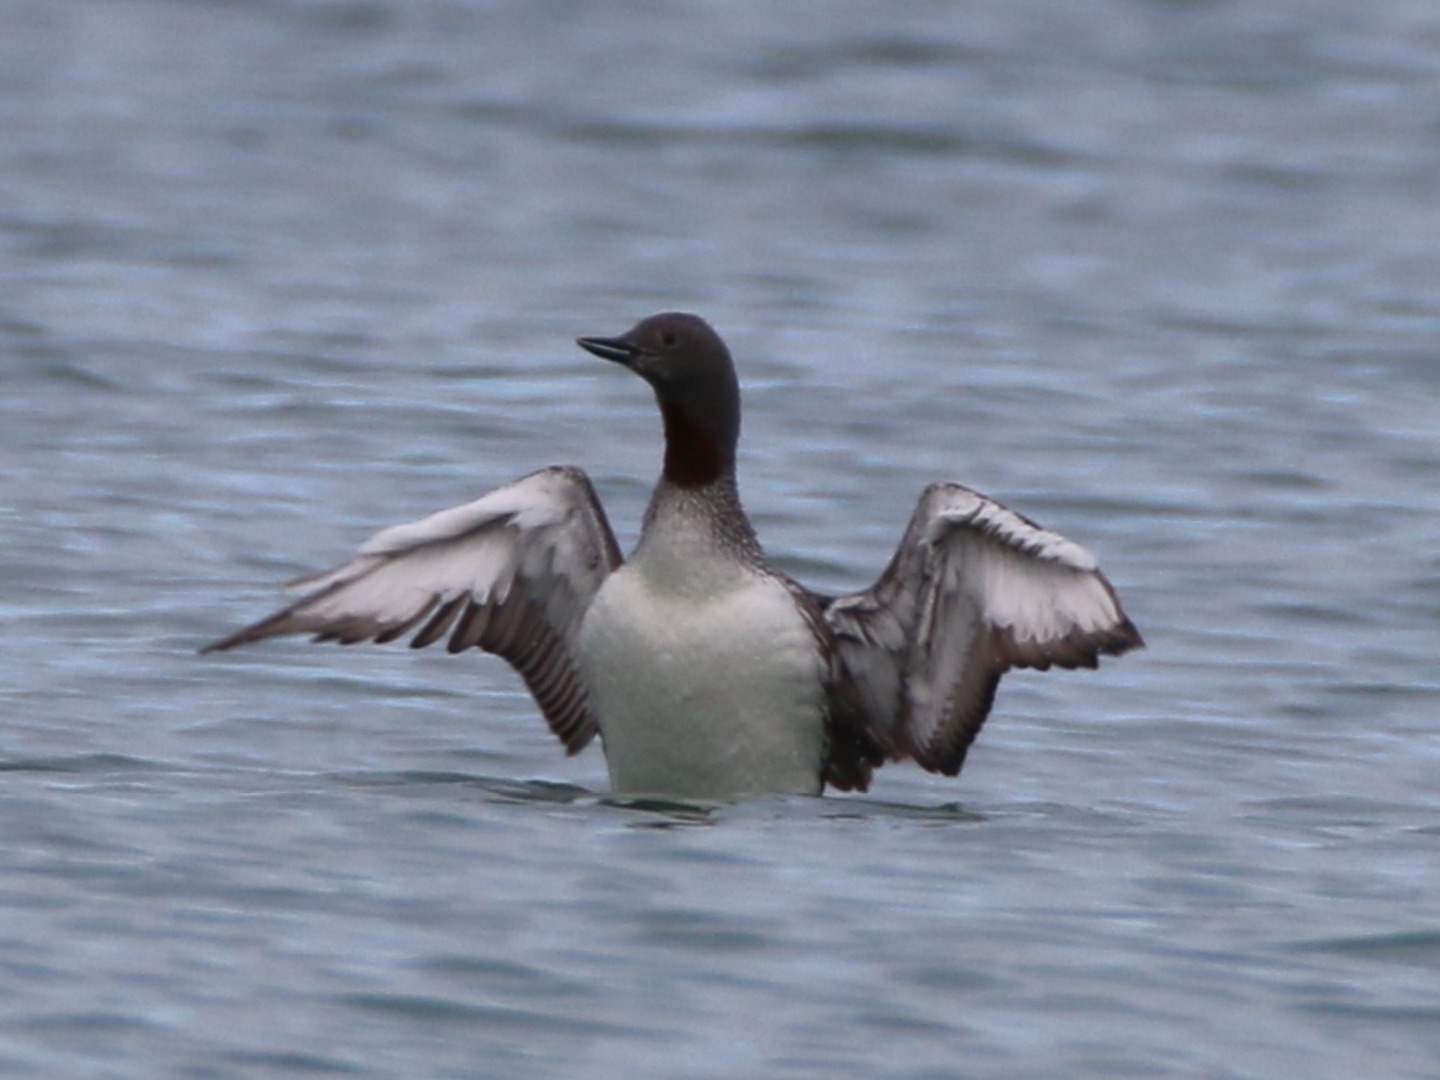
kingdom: Animalia
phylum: Chordata
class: Aves
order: Gaviiformes
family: Gaviidae
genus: Gavia
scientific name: Gavia arctica
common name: Sortstrubet lom
